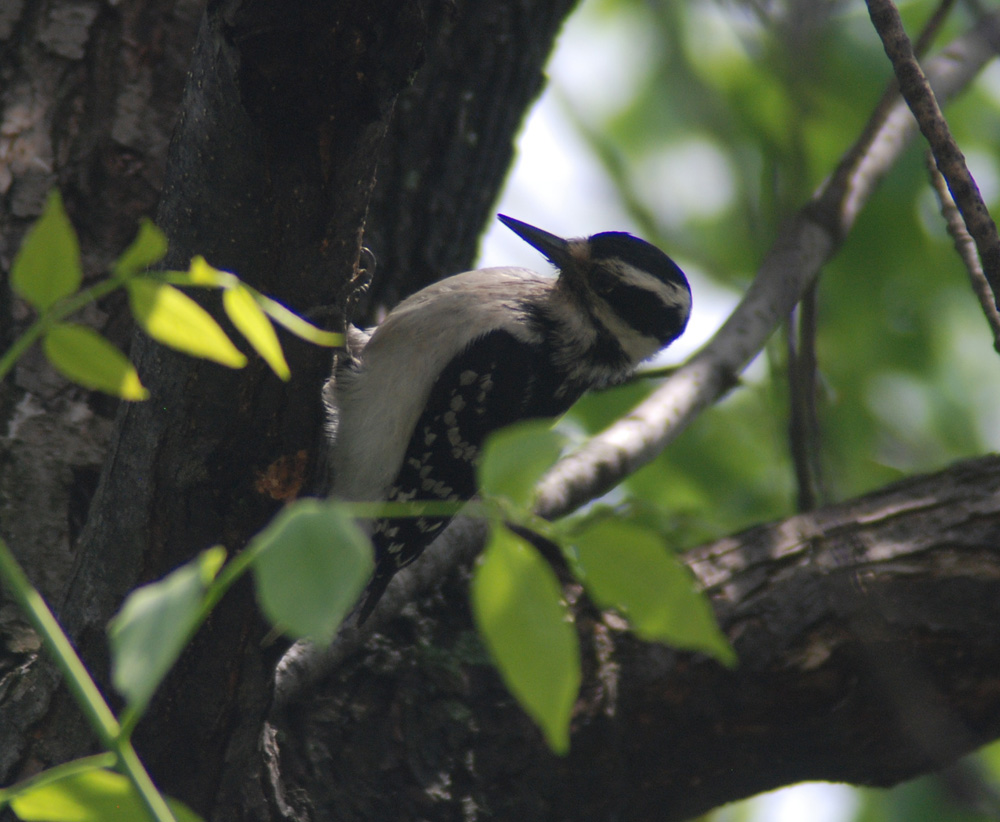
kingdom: Animalia
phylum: Chordata
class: Aves
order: Piciformes
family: Picidae
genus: Leuconotopicus
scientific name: Leuconotopicus villosus
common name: Hairy woodpecker
